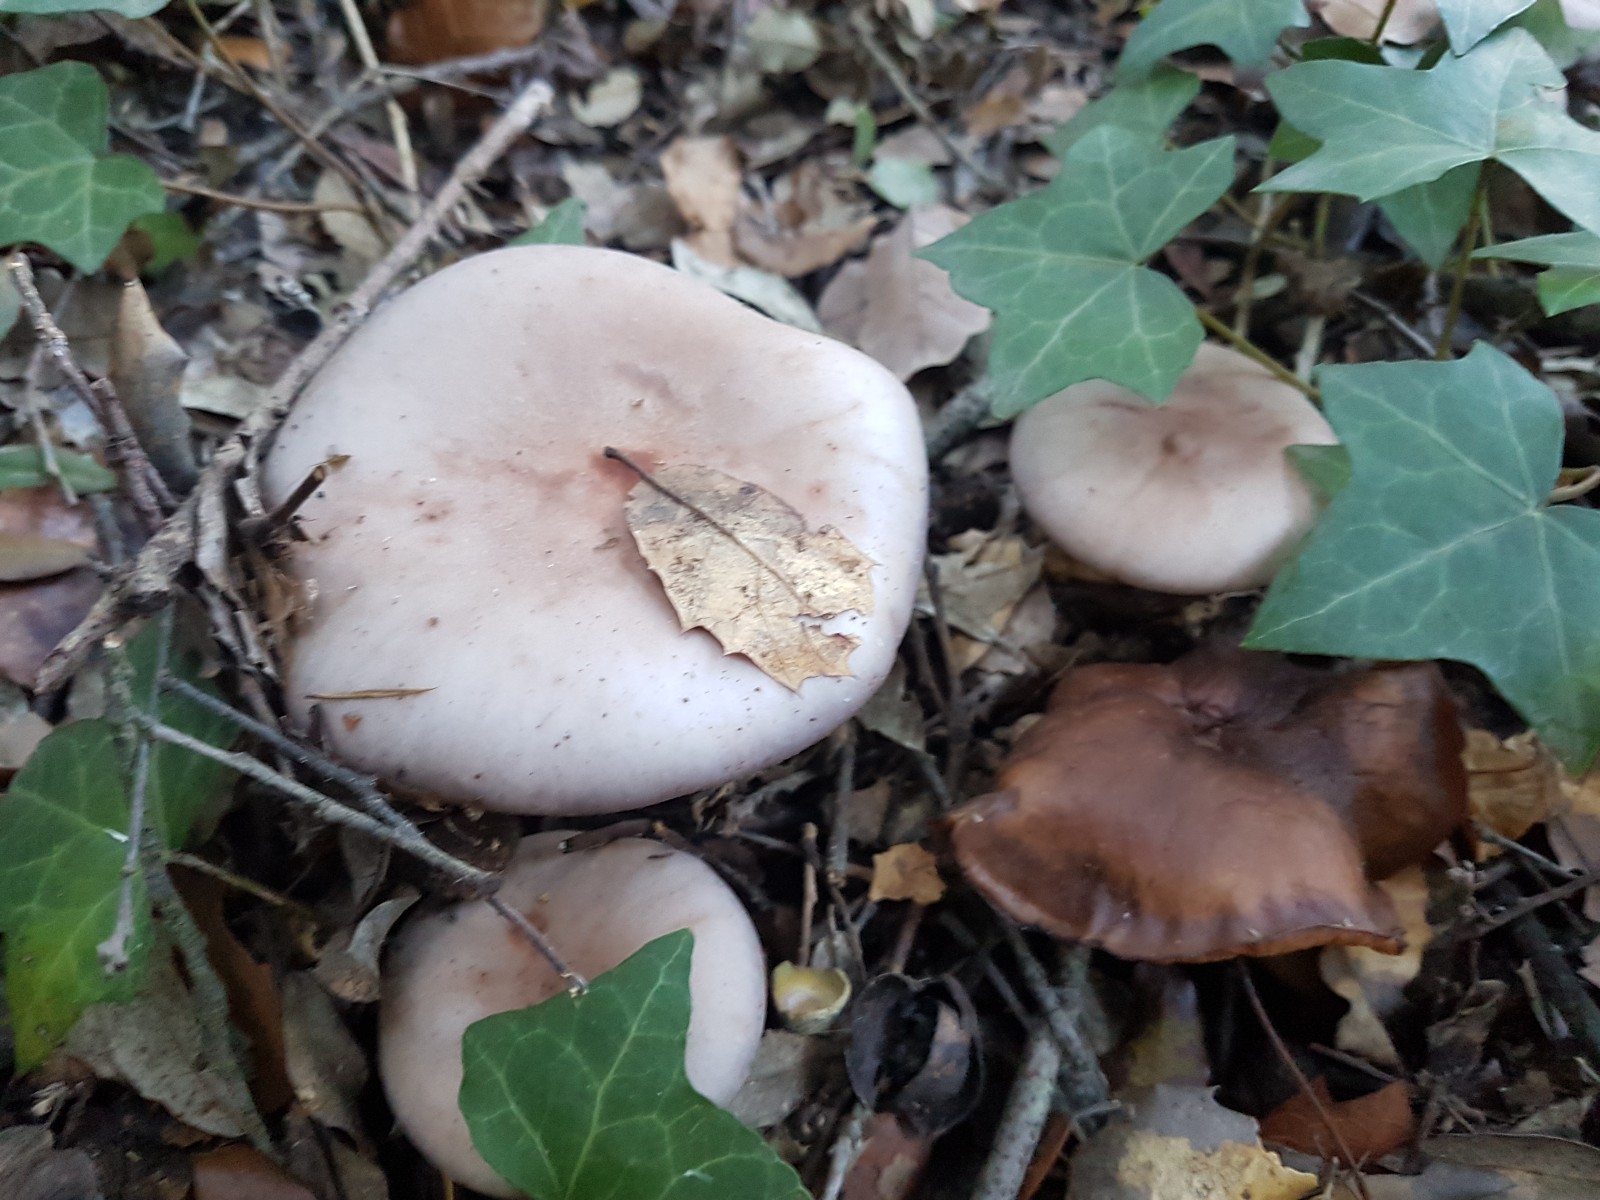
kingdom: Fungi
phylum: Basidiomycota
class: Agaricomycetes
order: Agaricales
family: Tricholomataceae
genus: Lepista
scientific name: Lepista nuda
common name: violet hekseringshat
